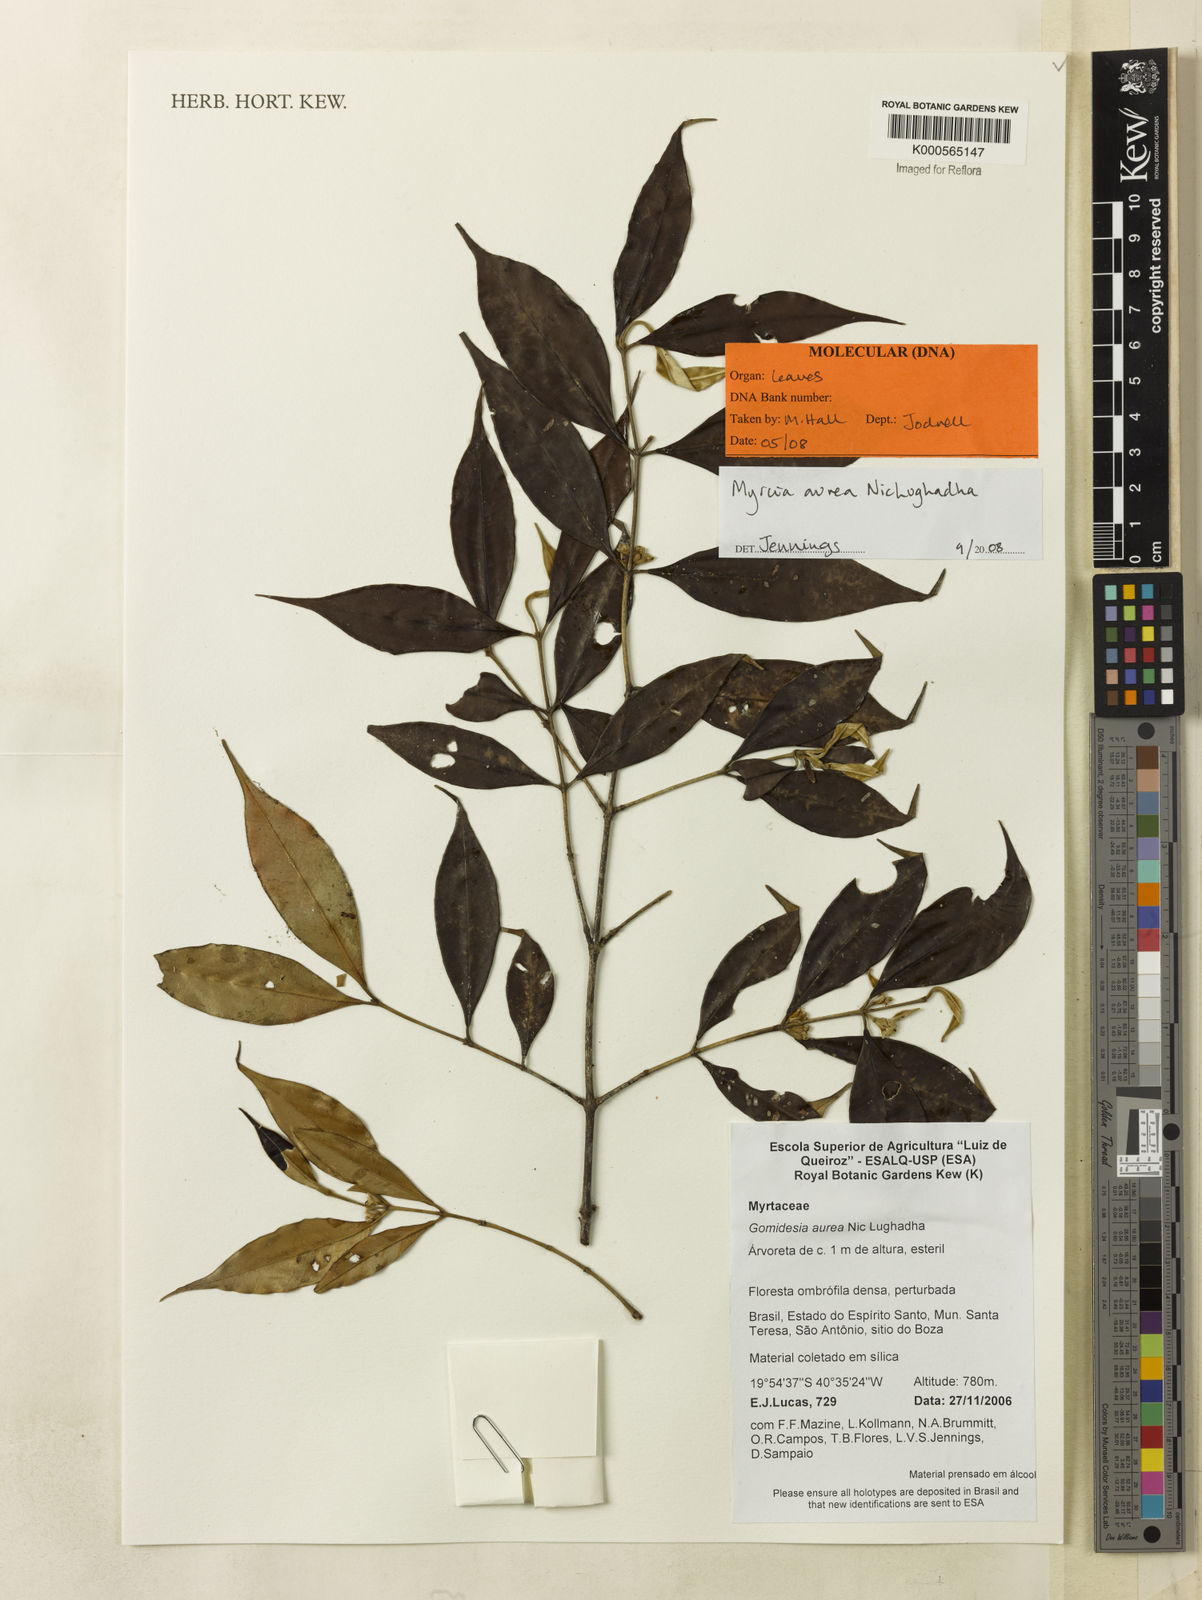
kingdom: Plantae
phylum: Tracheophyta
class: Magnoliopsida
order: Myrtales
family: Myrtaceae
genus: Myrcia
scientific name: Myrcia aurea
